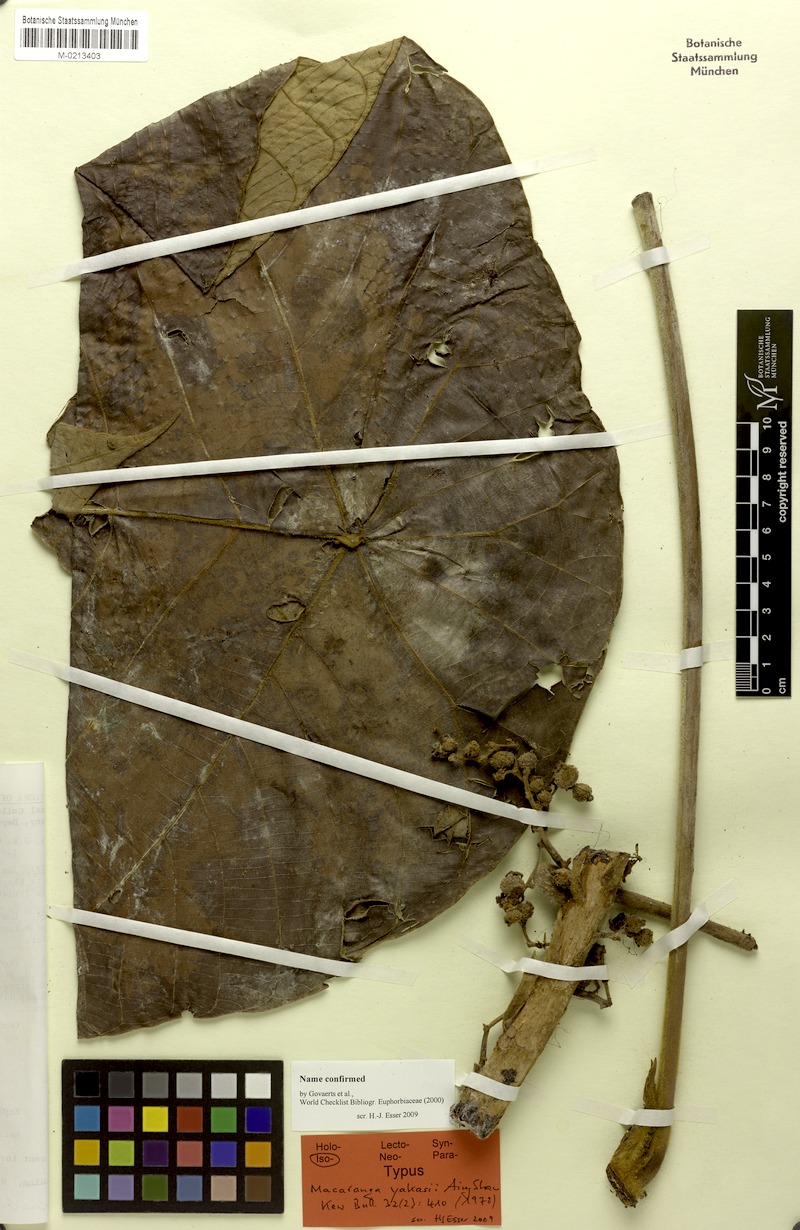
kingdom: Plantae
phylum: Tracheophyta
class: Magnoliopsida
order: Malpighiales
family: Euphorbiaceae
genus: Macaranga
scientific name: Macaranga yakasii
